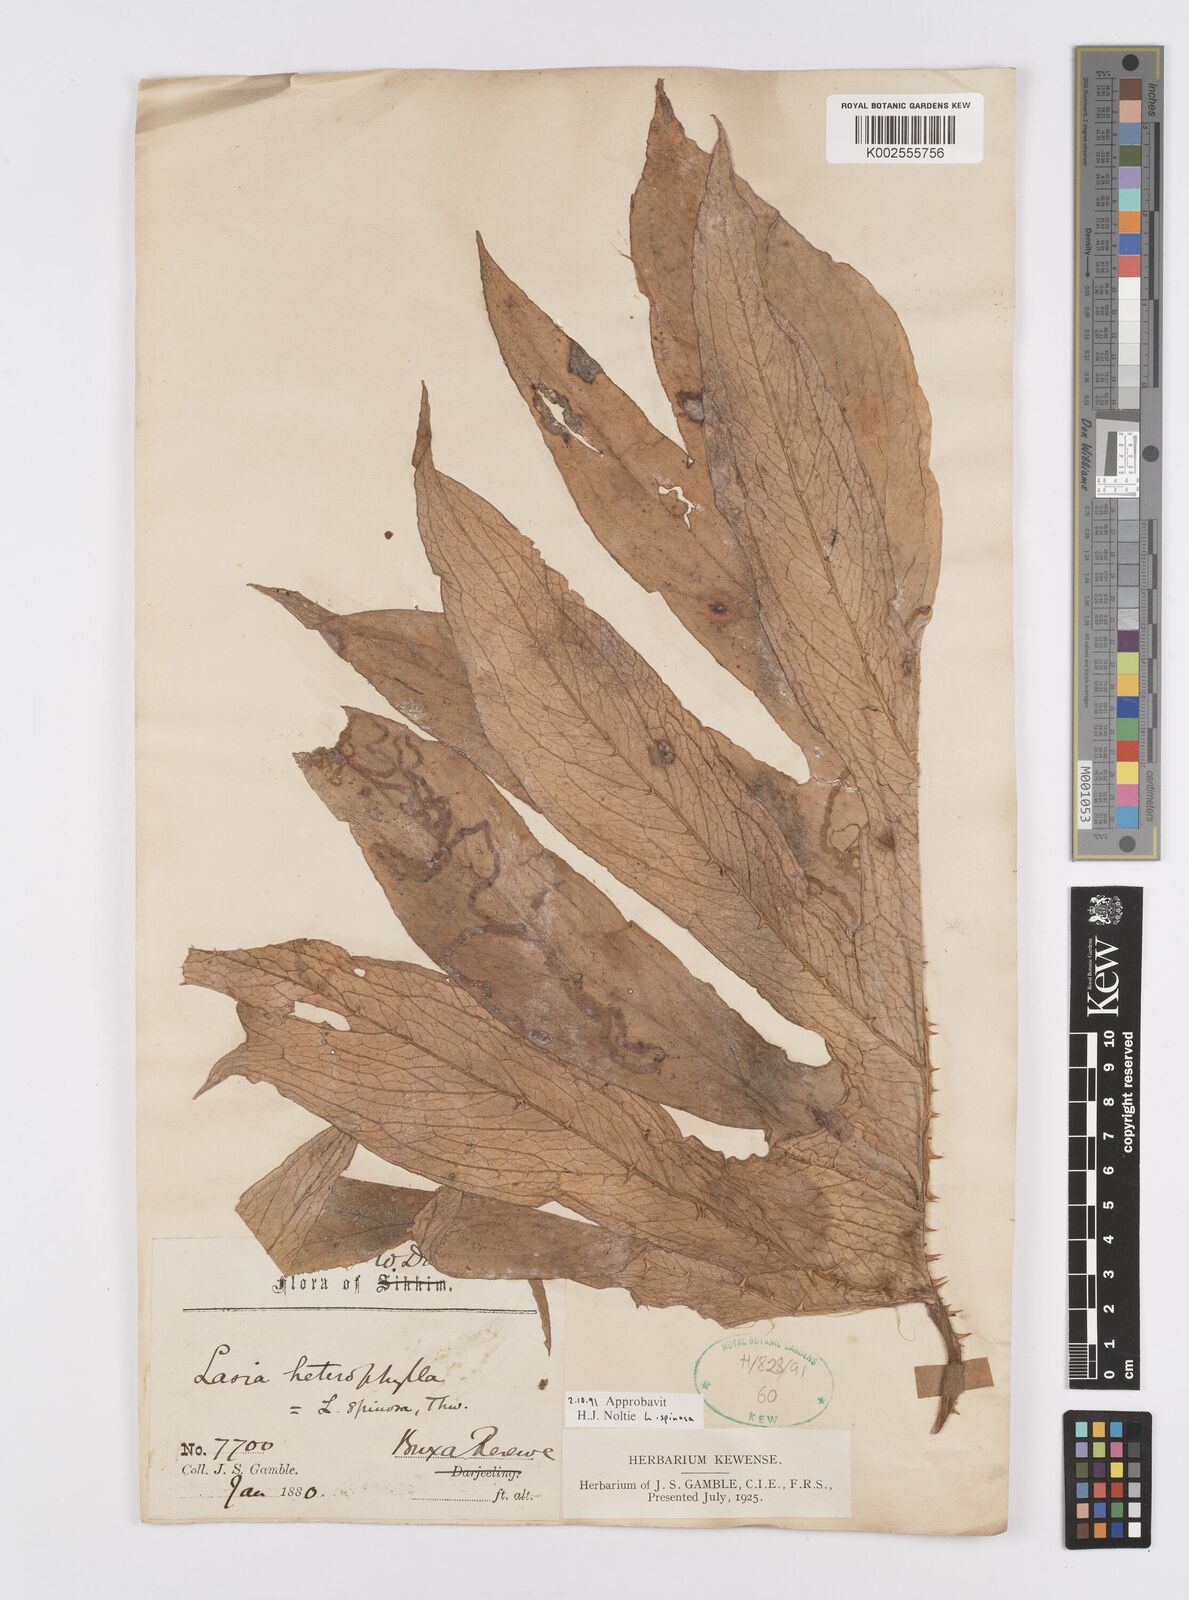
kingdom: Plantae
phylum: Tracheophyta
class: Liliopsida
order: Alismatales
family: Araceae
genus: Lasia
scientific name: Lasia spinosa
